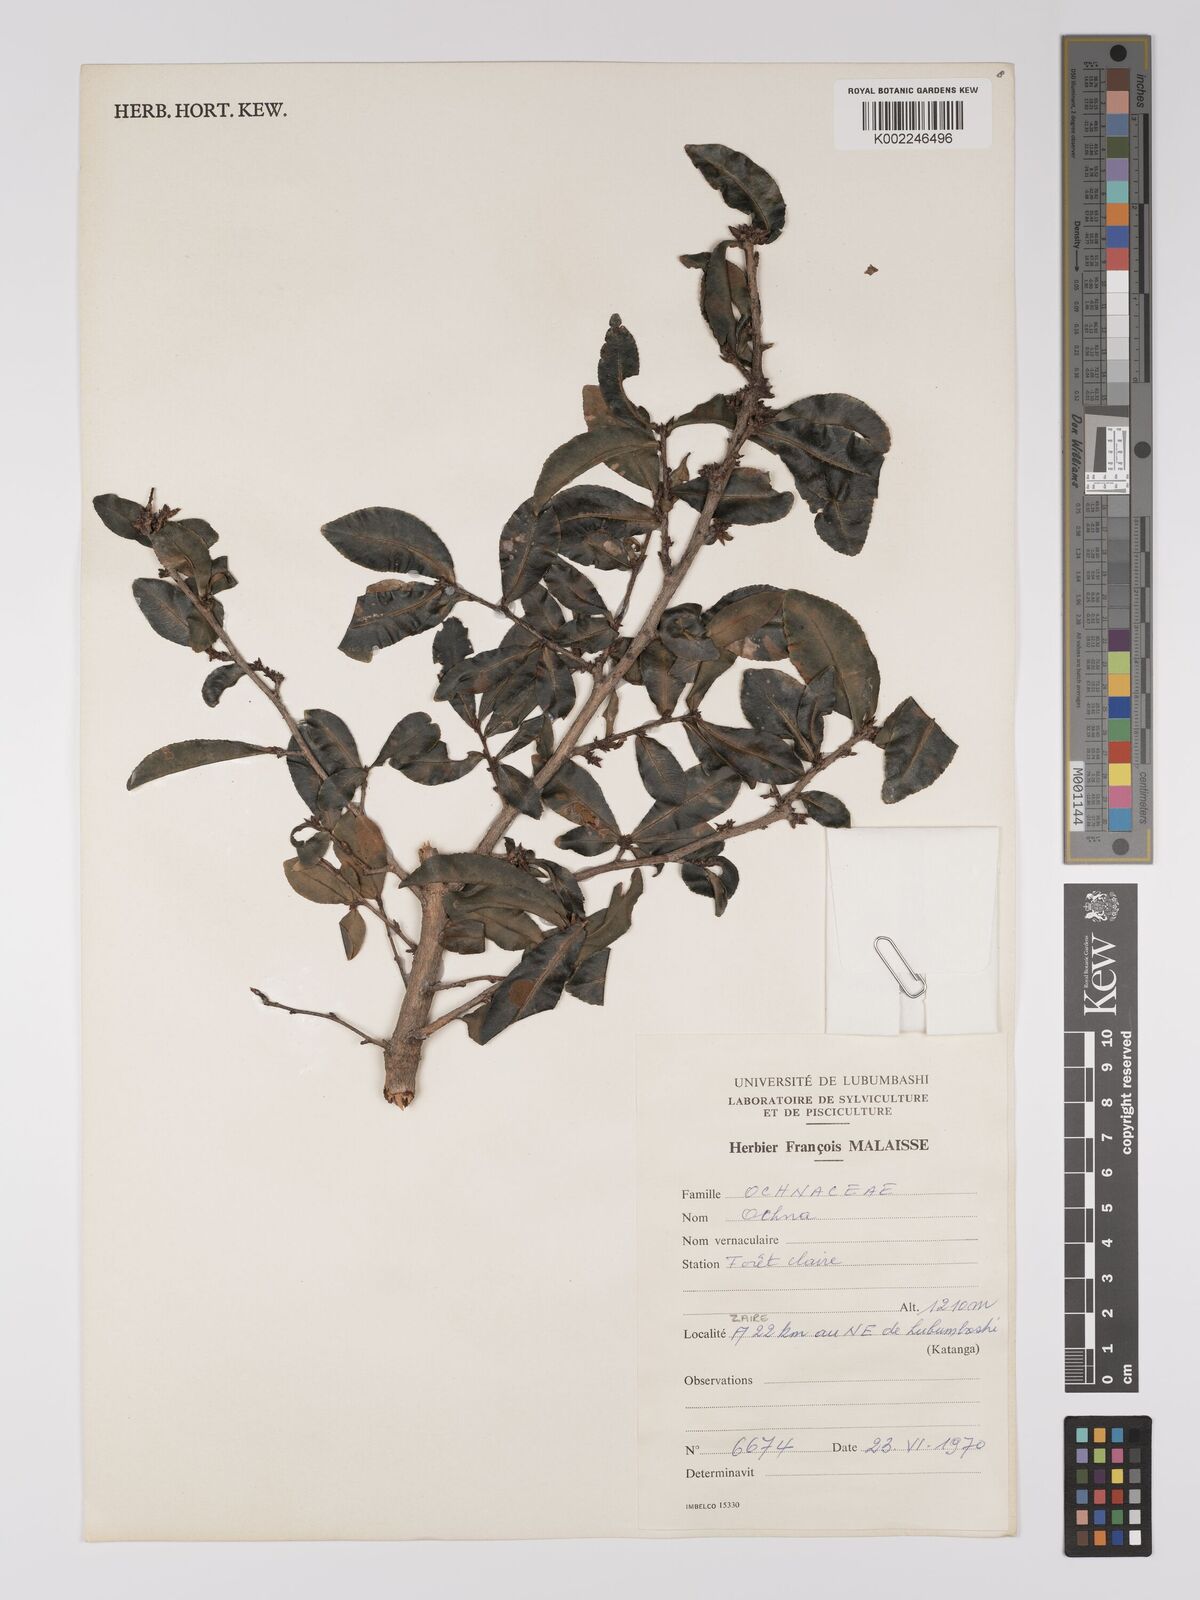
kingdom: Plantae
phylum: Tracheophyta
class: Magnoliopsida
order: Malpighiales
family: Ochnaceae
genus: Ochna
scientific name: Ochna
